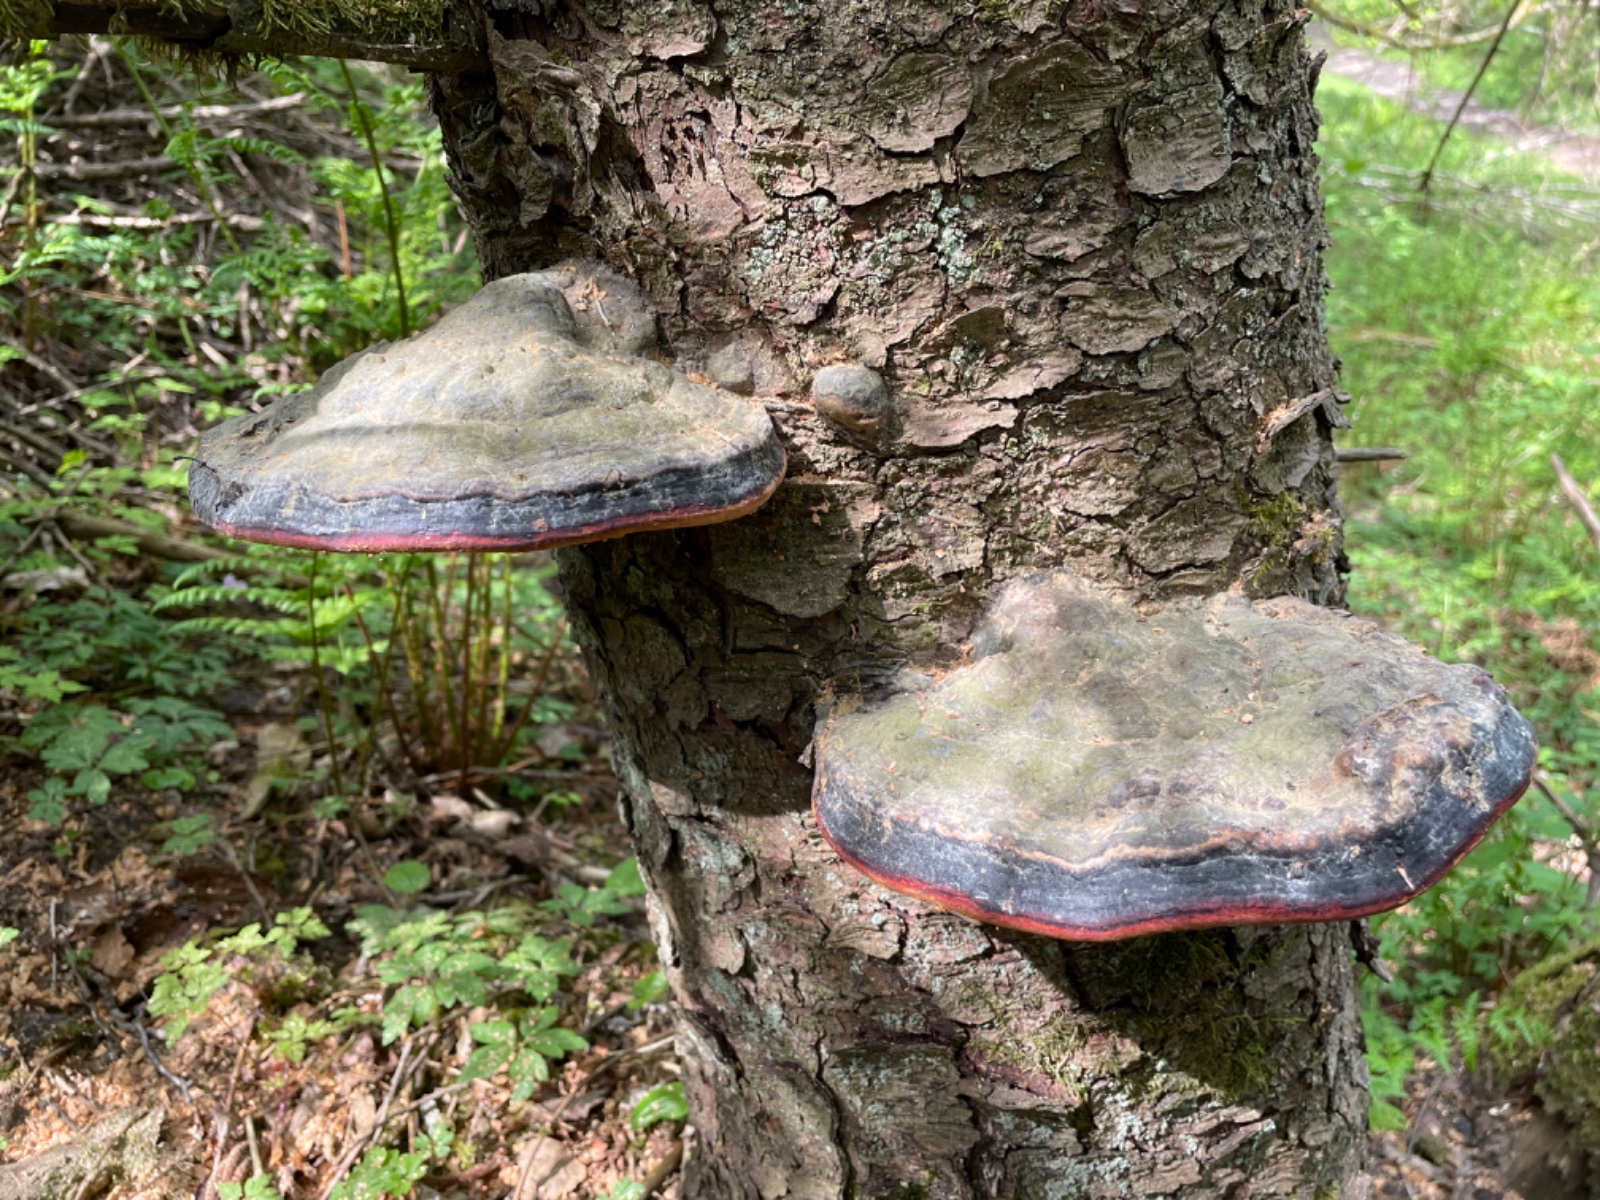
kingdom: Fungi
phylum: Basidiomycota
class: Agaricomycetes
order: Polyporales
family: Fomitopsidaceae
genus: Fomitopsis
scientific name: Fomitopsis pinicola
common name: randbæltet hovporesvamp
